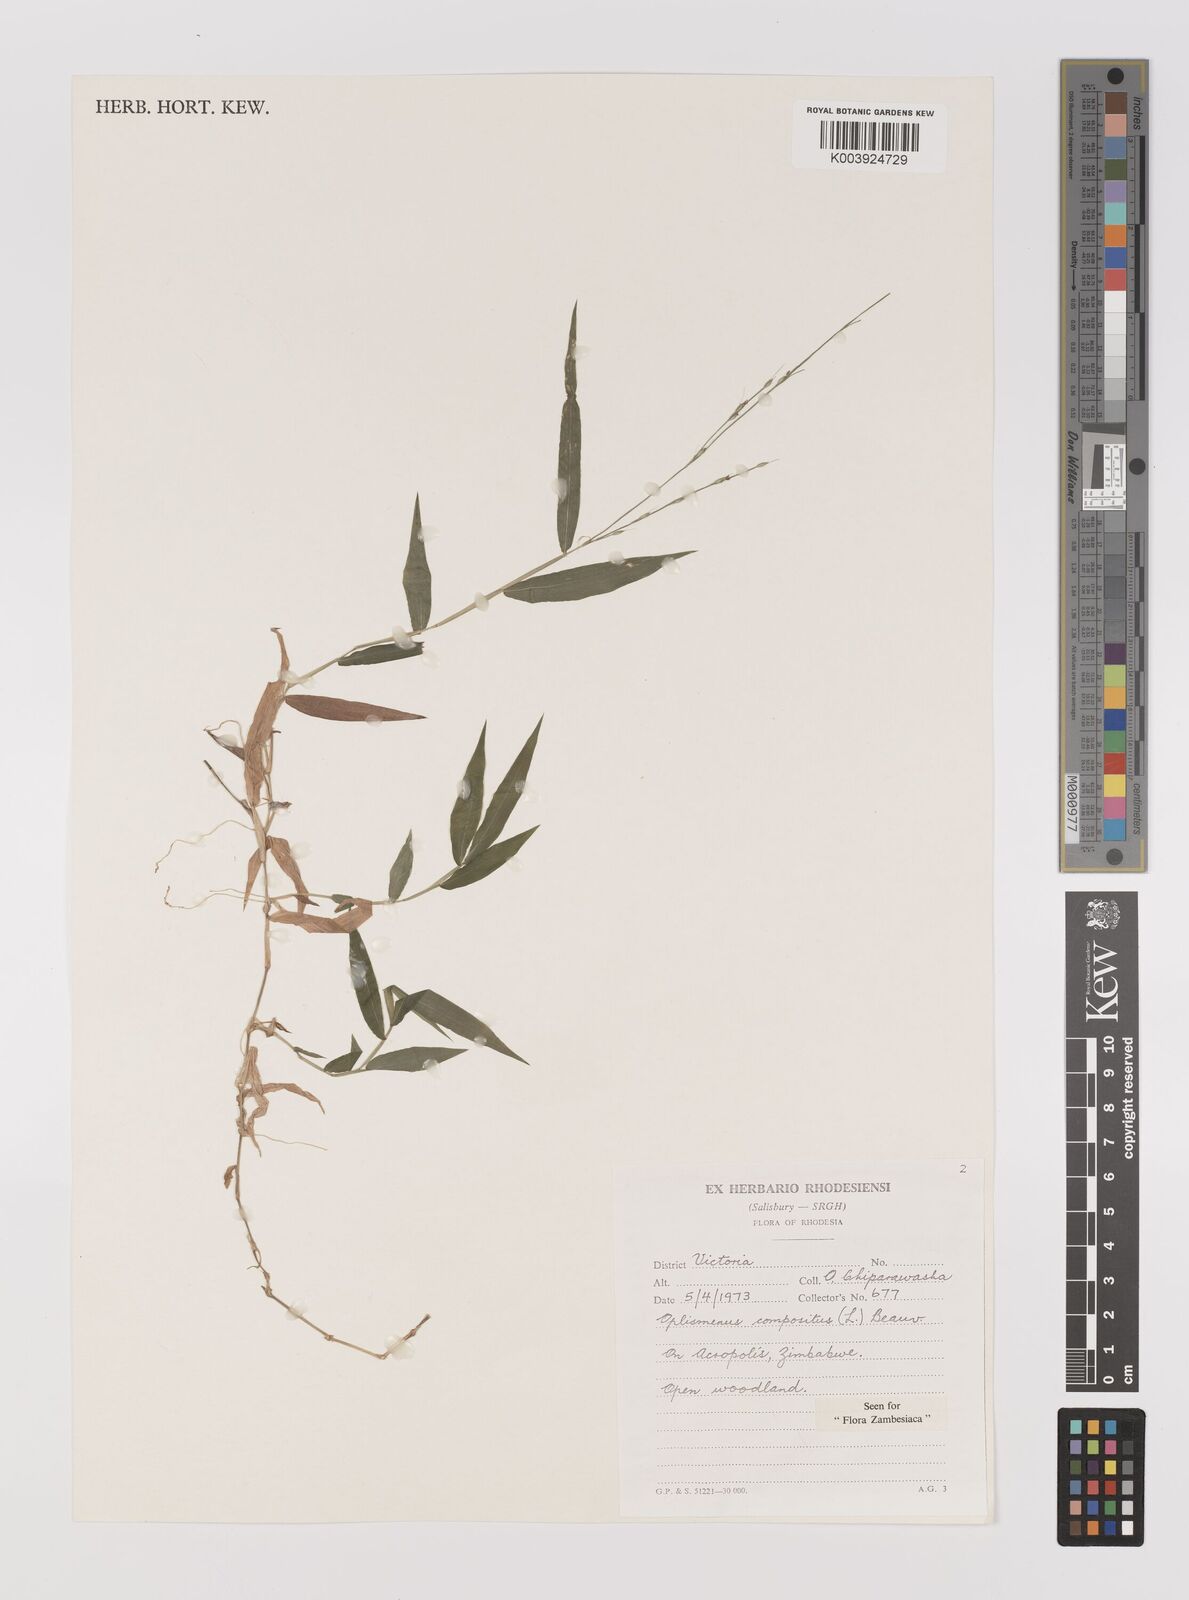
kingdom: Plantae
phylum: Tracheophyta
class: Liliopsida
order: Poales
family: Poaceae
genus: Oplismenus
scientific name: Oplismenus compositus
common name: Running mountain grass
